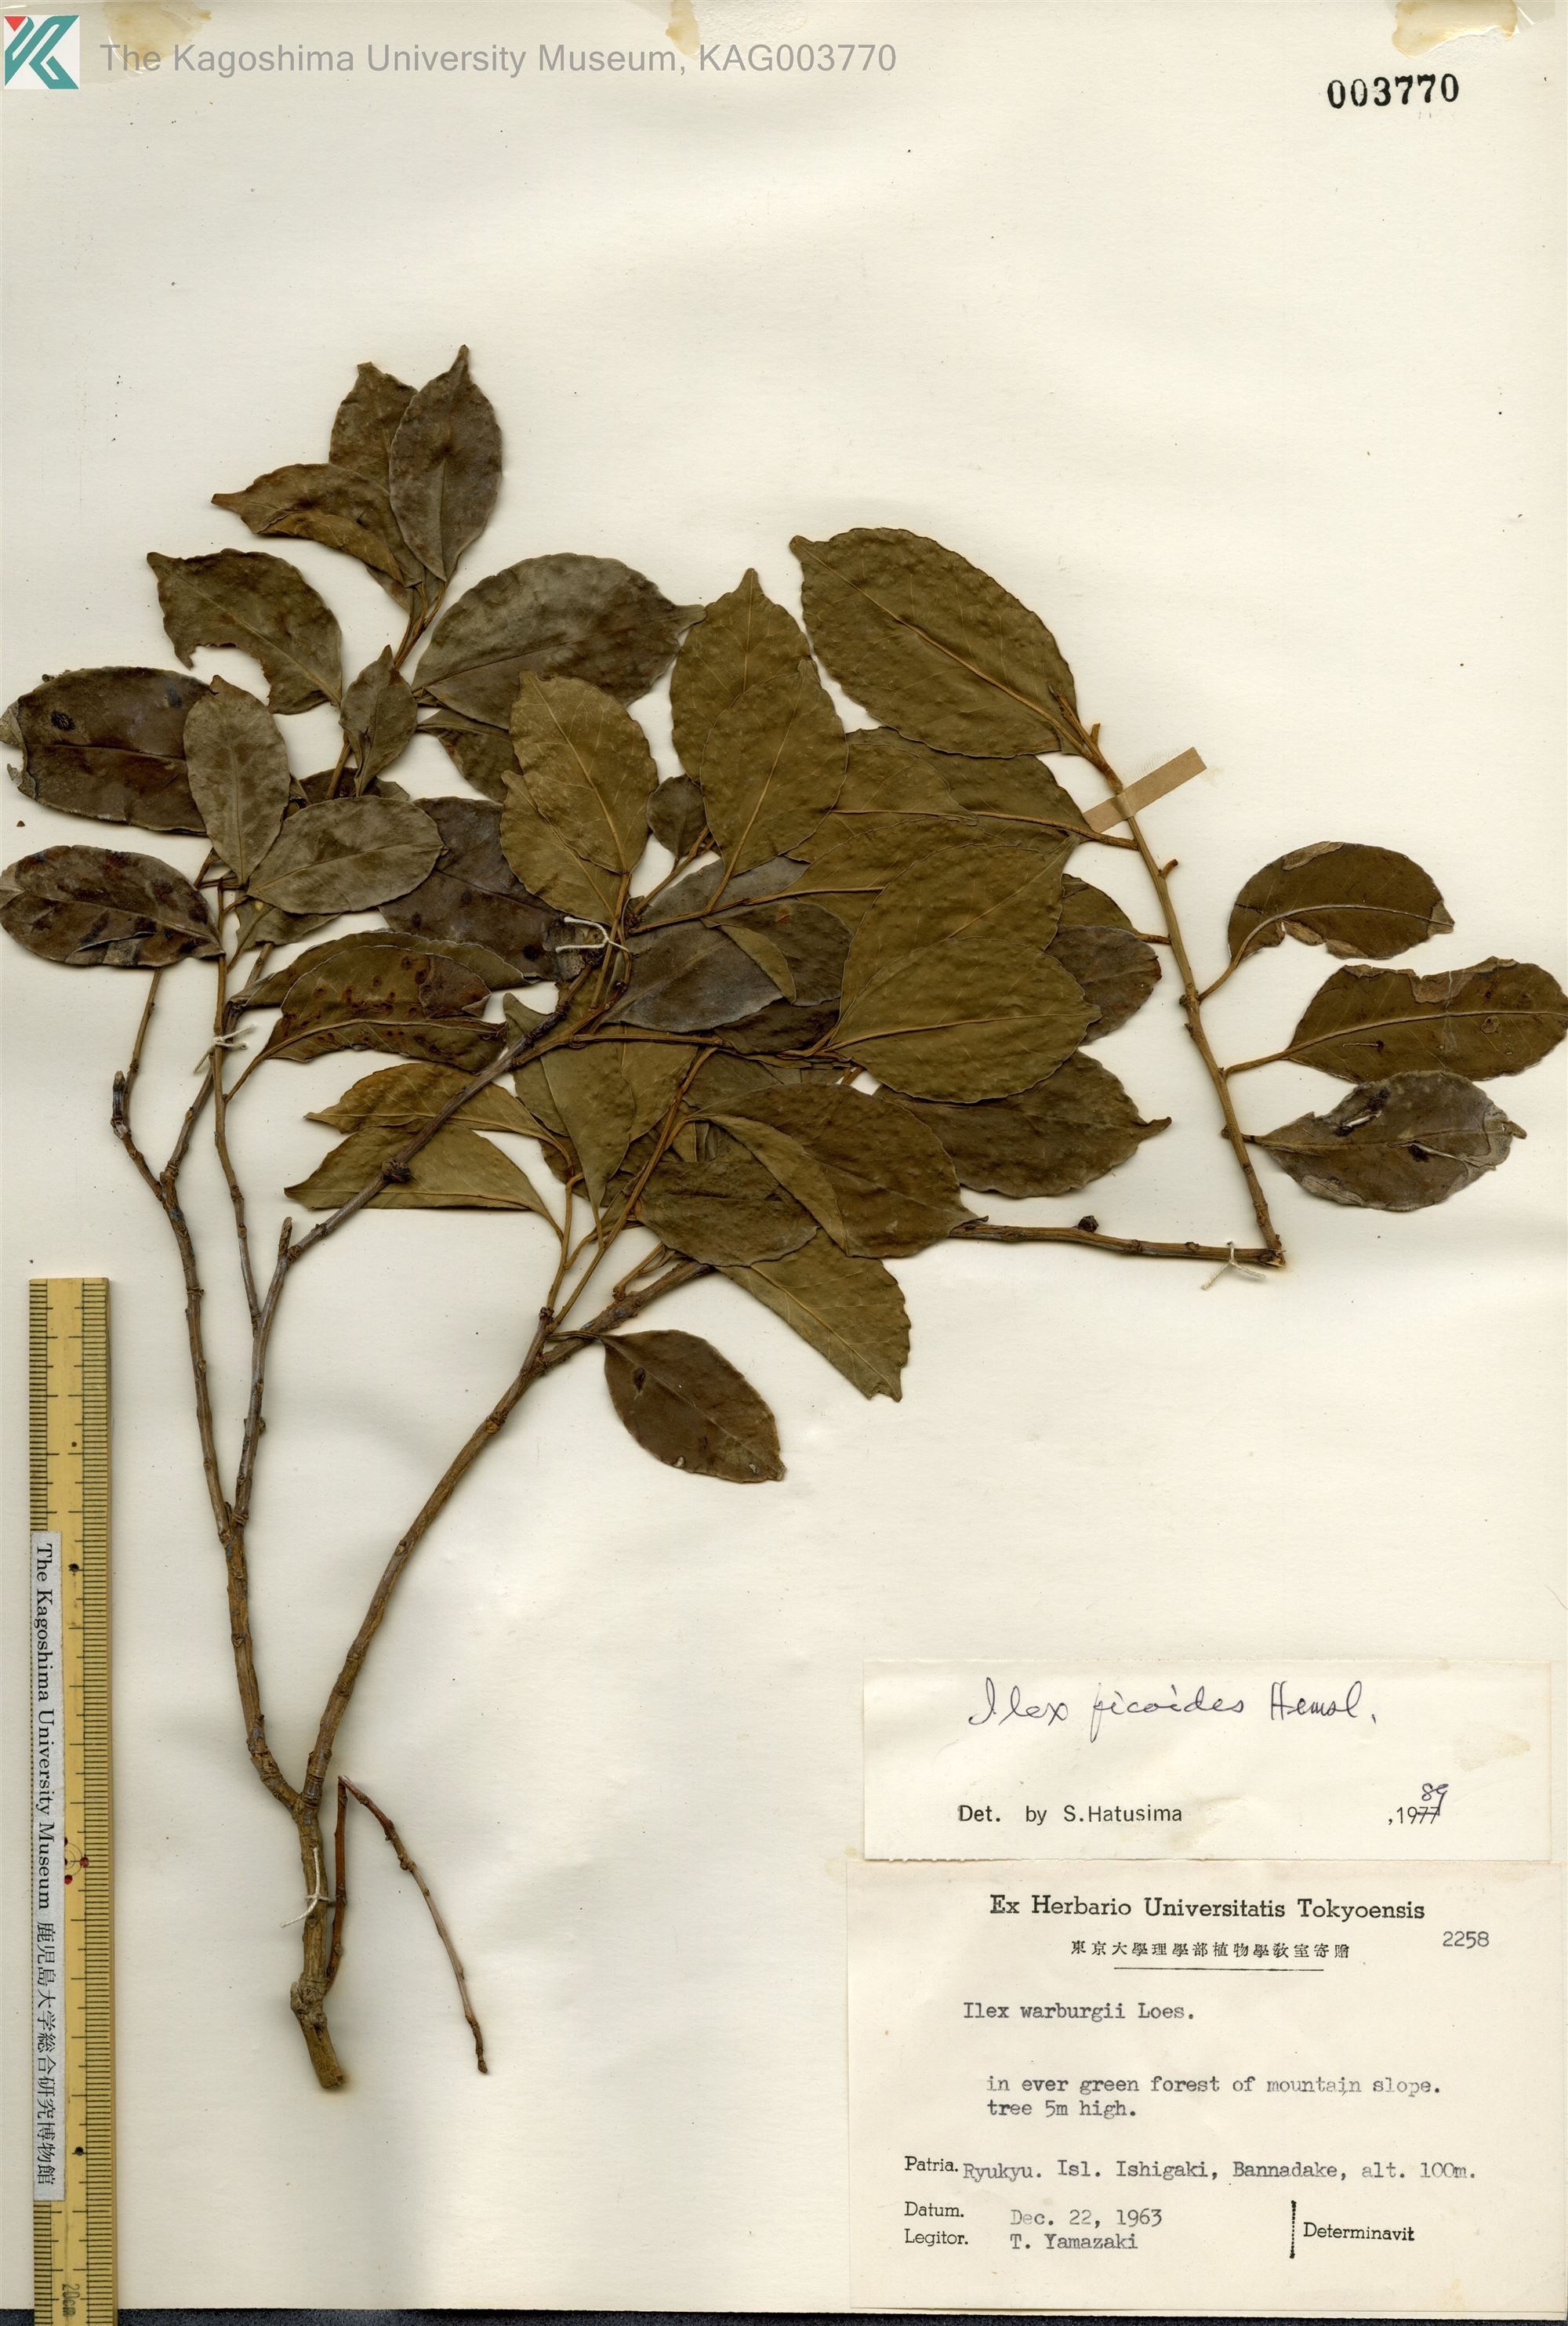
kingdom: Plantae
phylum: Tracheophyta
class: Magnoliopsida
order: Aquifoliales
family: Aquifoliaceae
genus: Ilex
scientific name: Ilex warburgii
